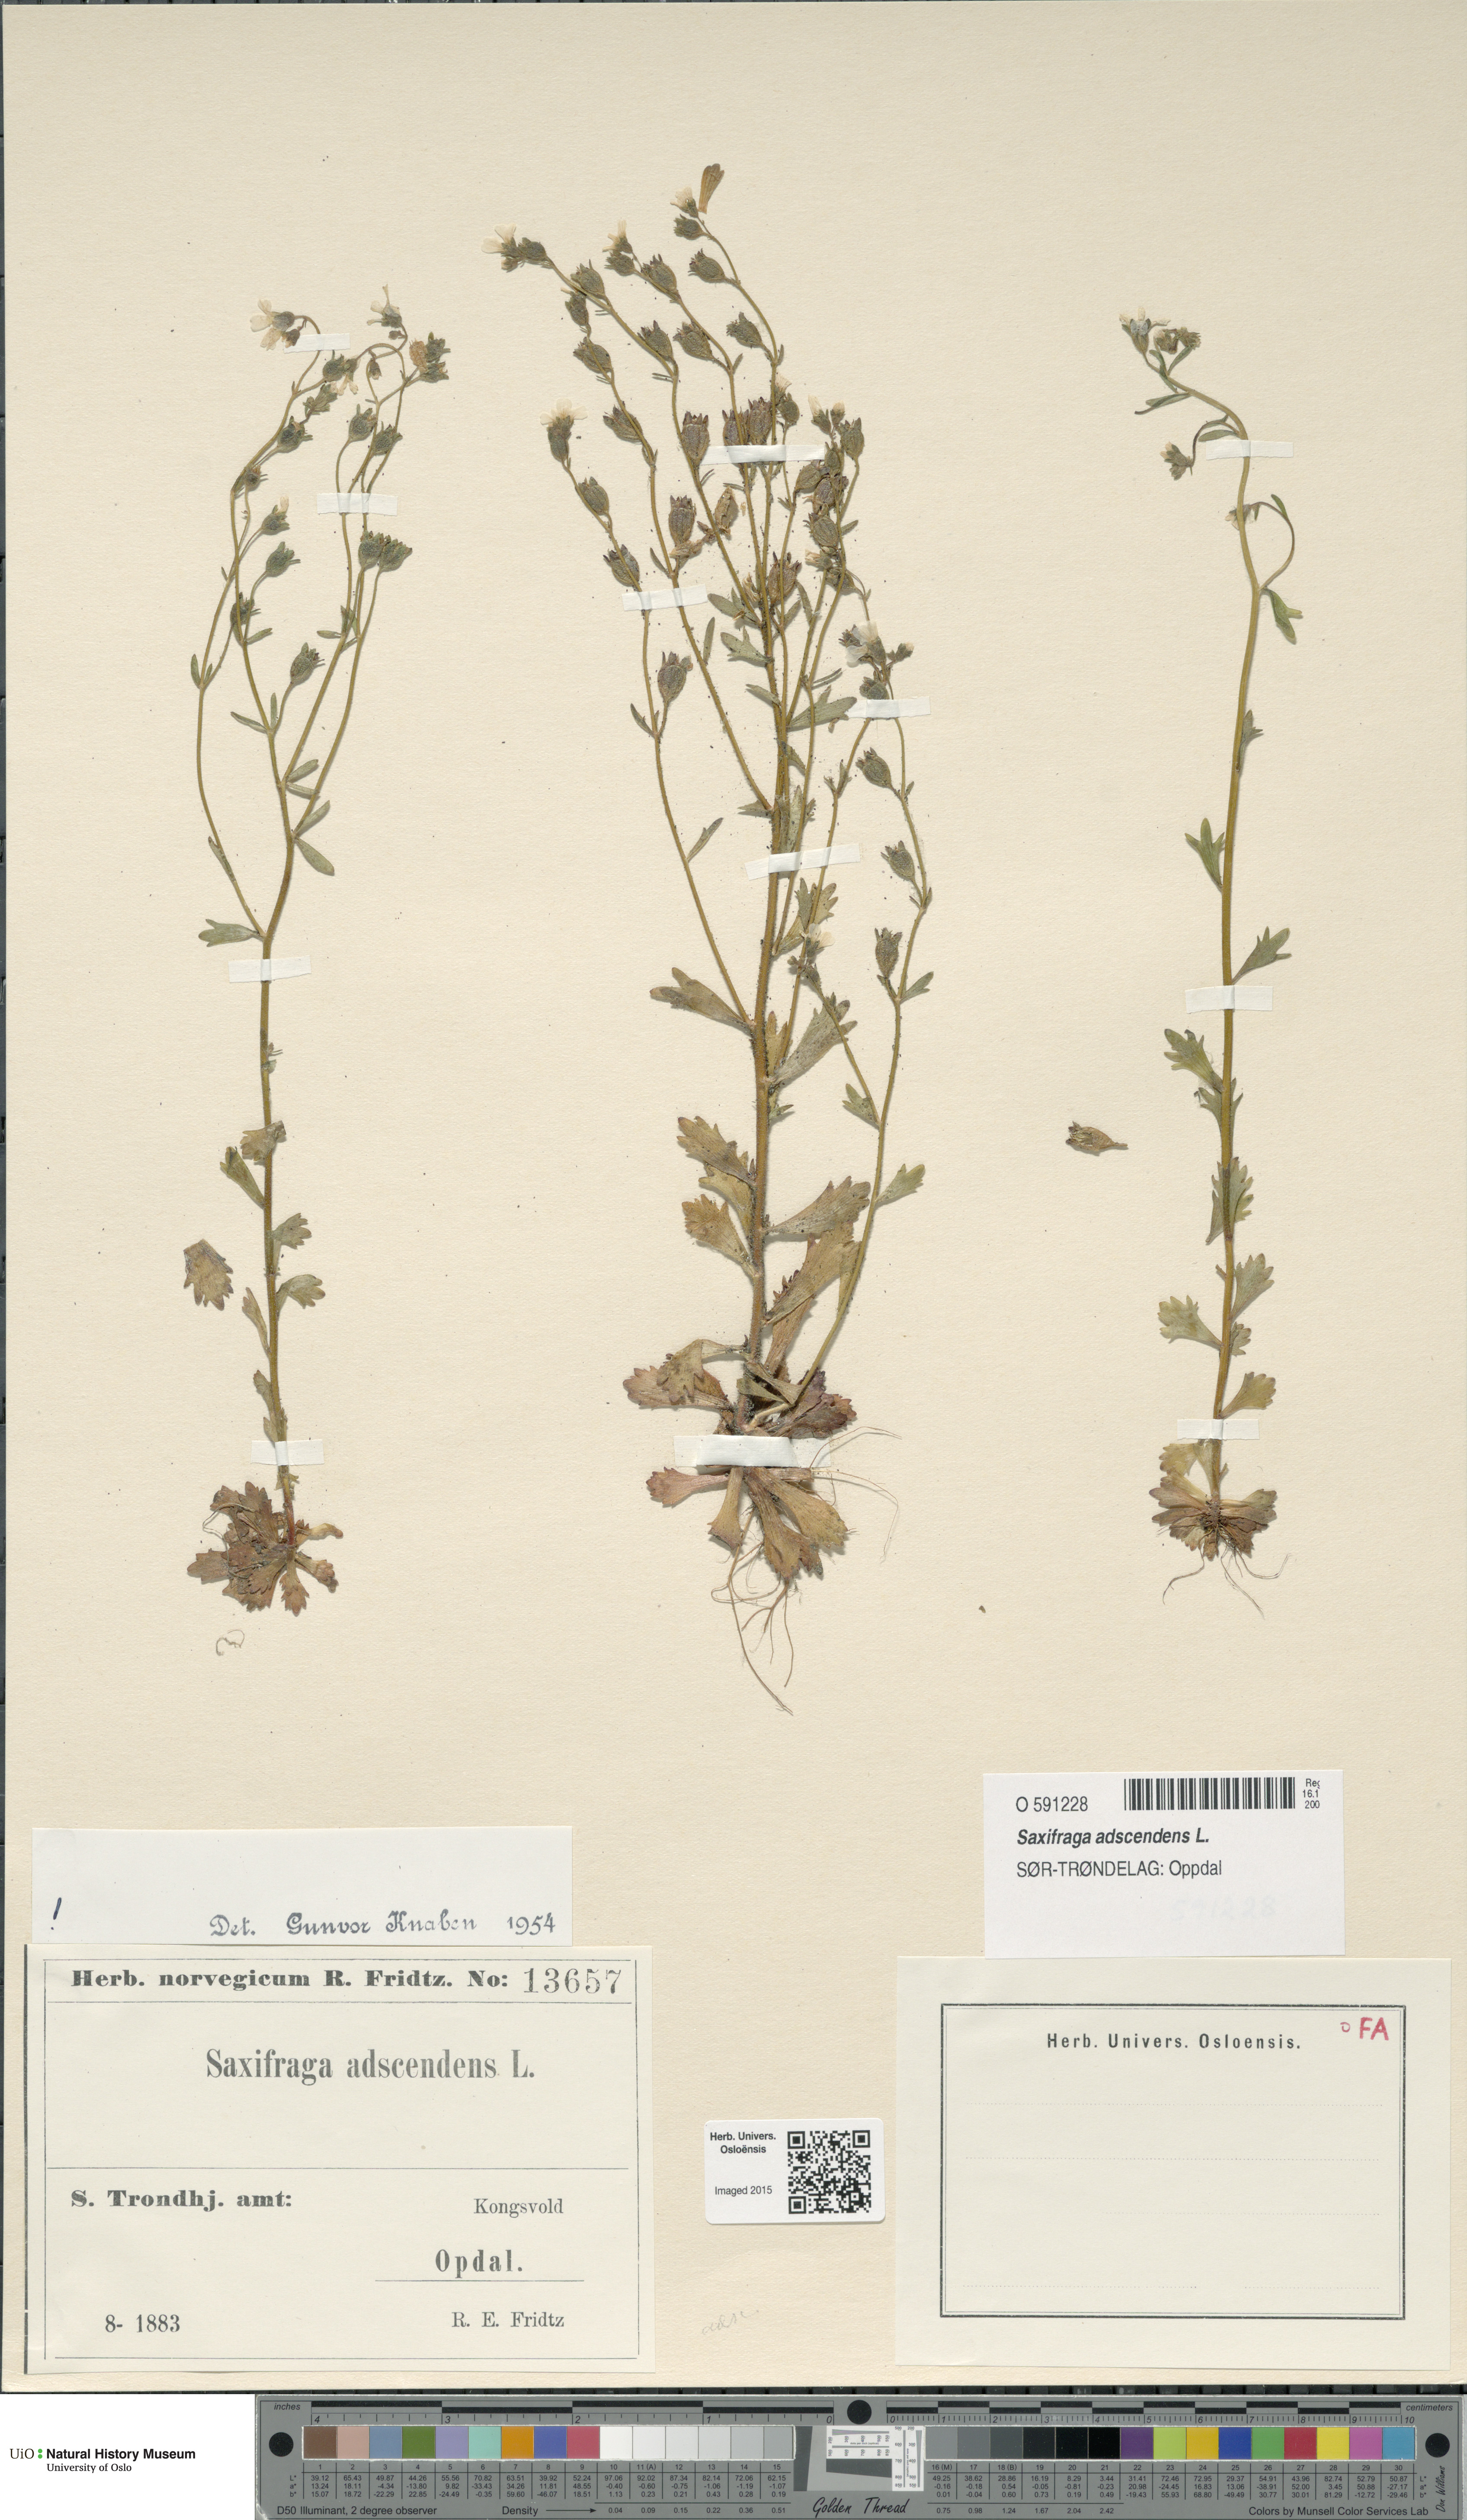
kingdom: Plantae
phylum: Tracheophyta
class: Magnoliopsida
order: Saxifragales
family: Saxifragaceae
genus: Saxifraga
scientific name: Saxifraga adscendens
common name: Ascending saxifrage
